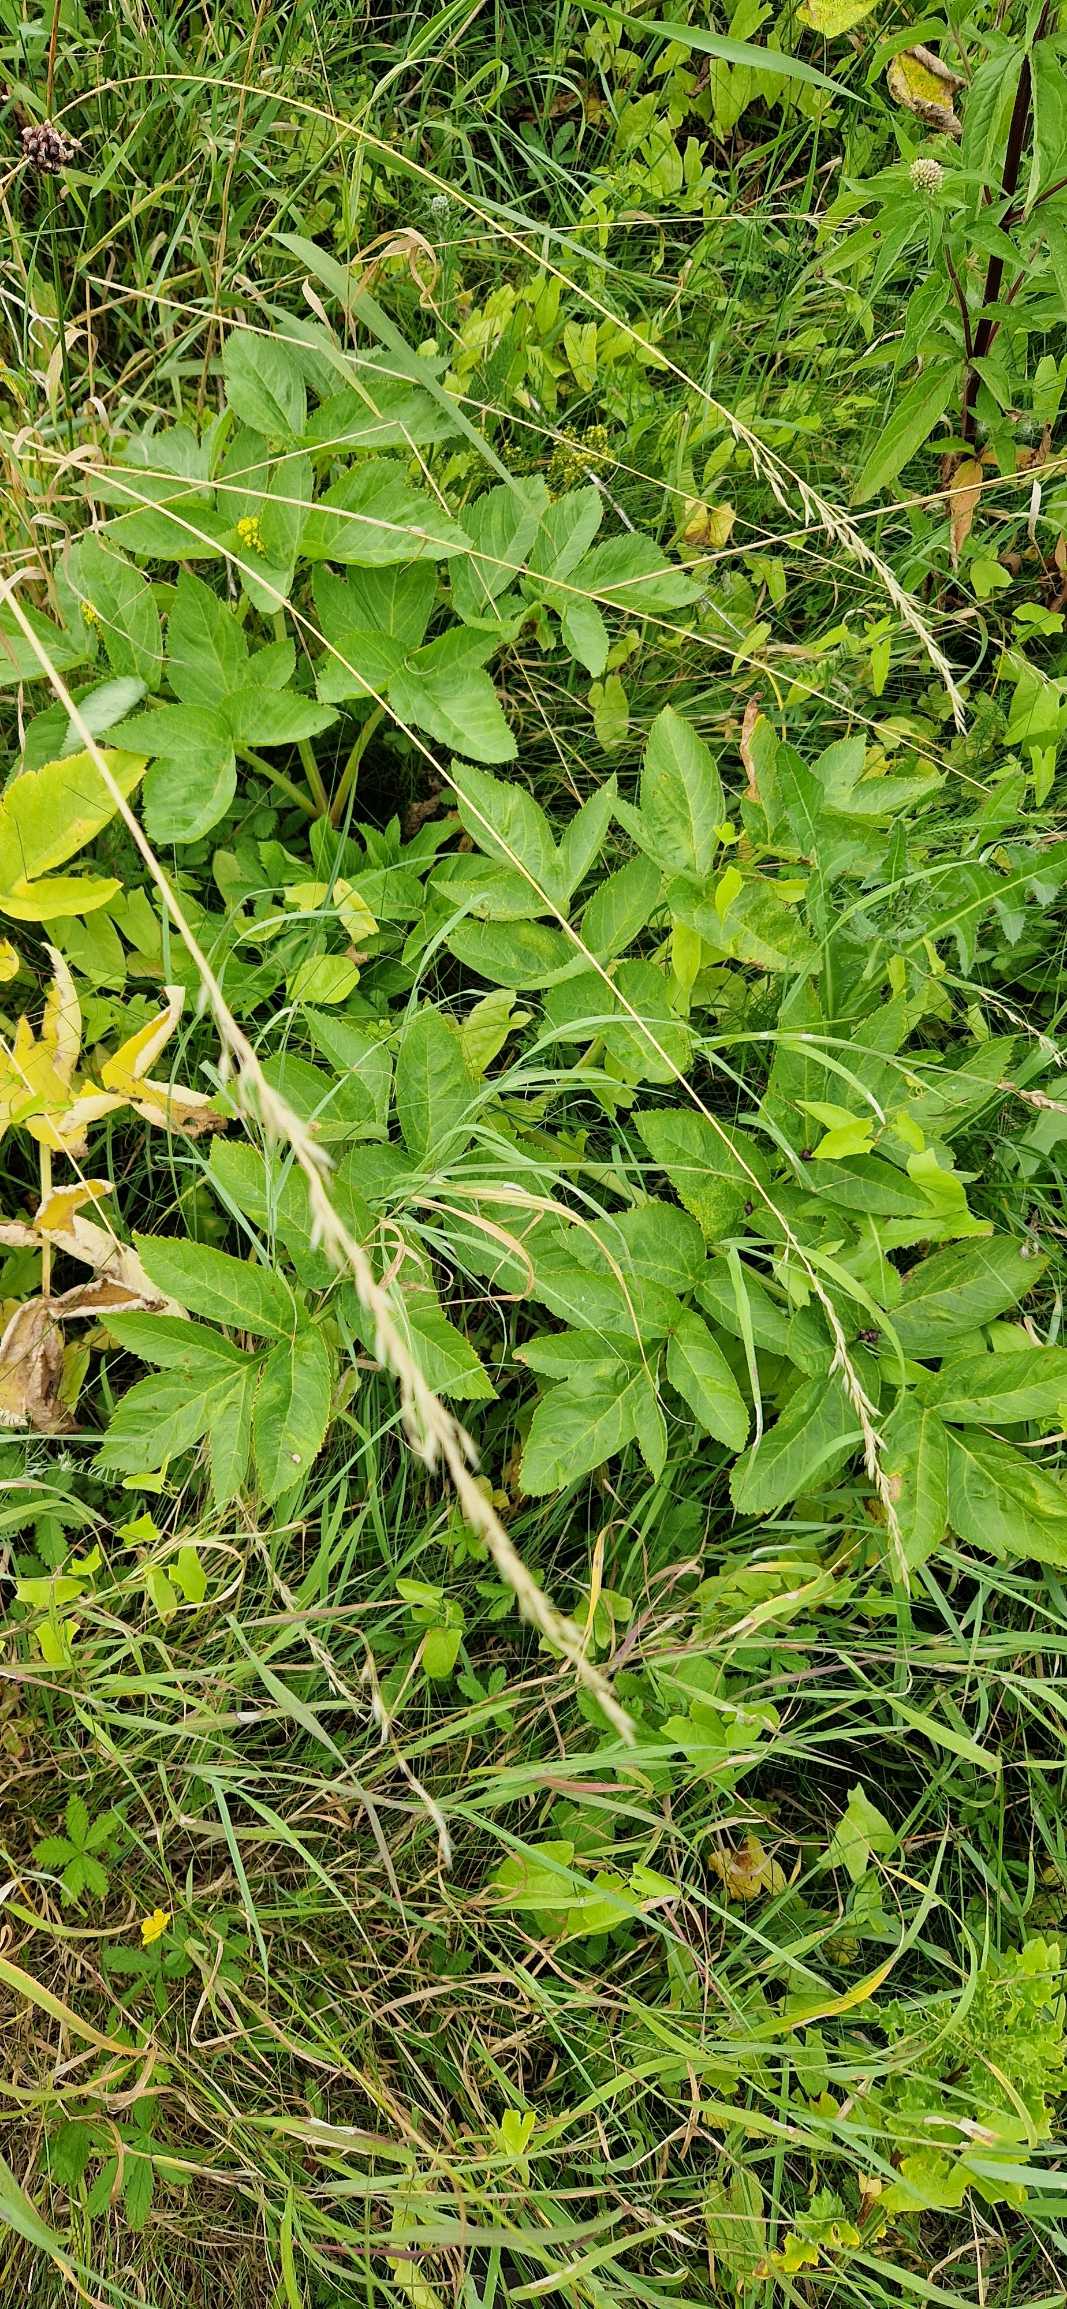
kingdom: Plantae
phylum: Tracheophyta
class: Magnoliopsida
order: Apiales
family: Apiaceae
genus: Angelica
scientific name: Angelica archangelica
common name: Kvan
